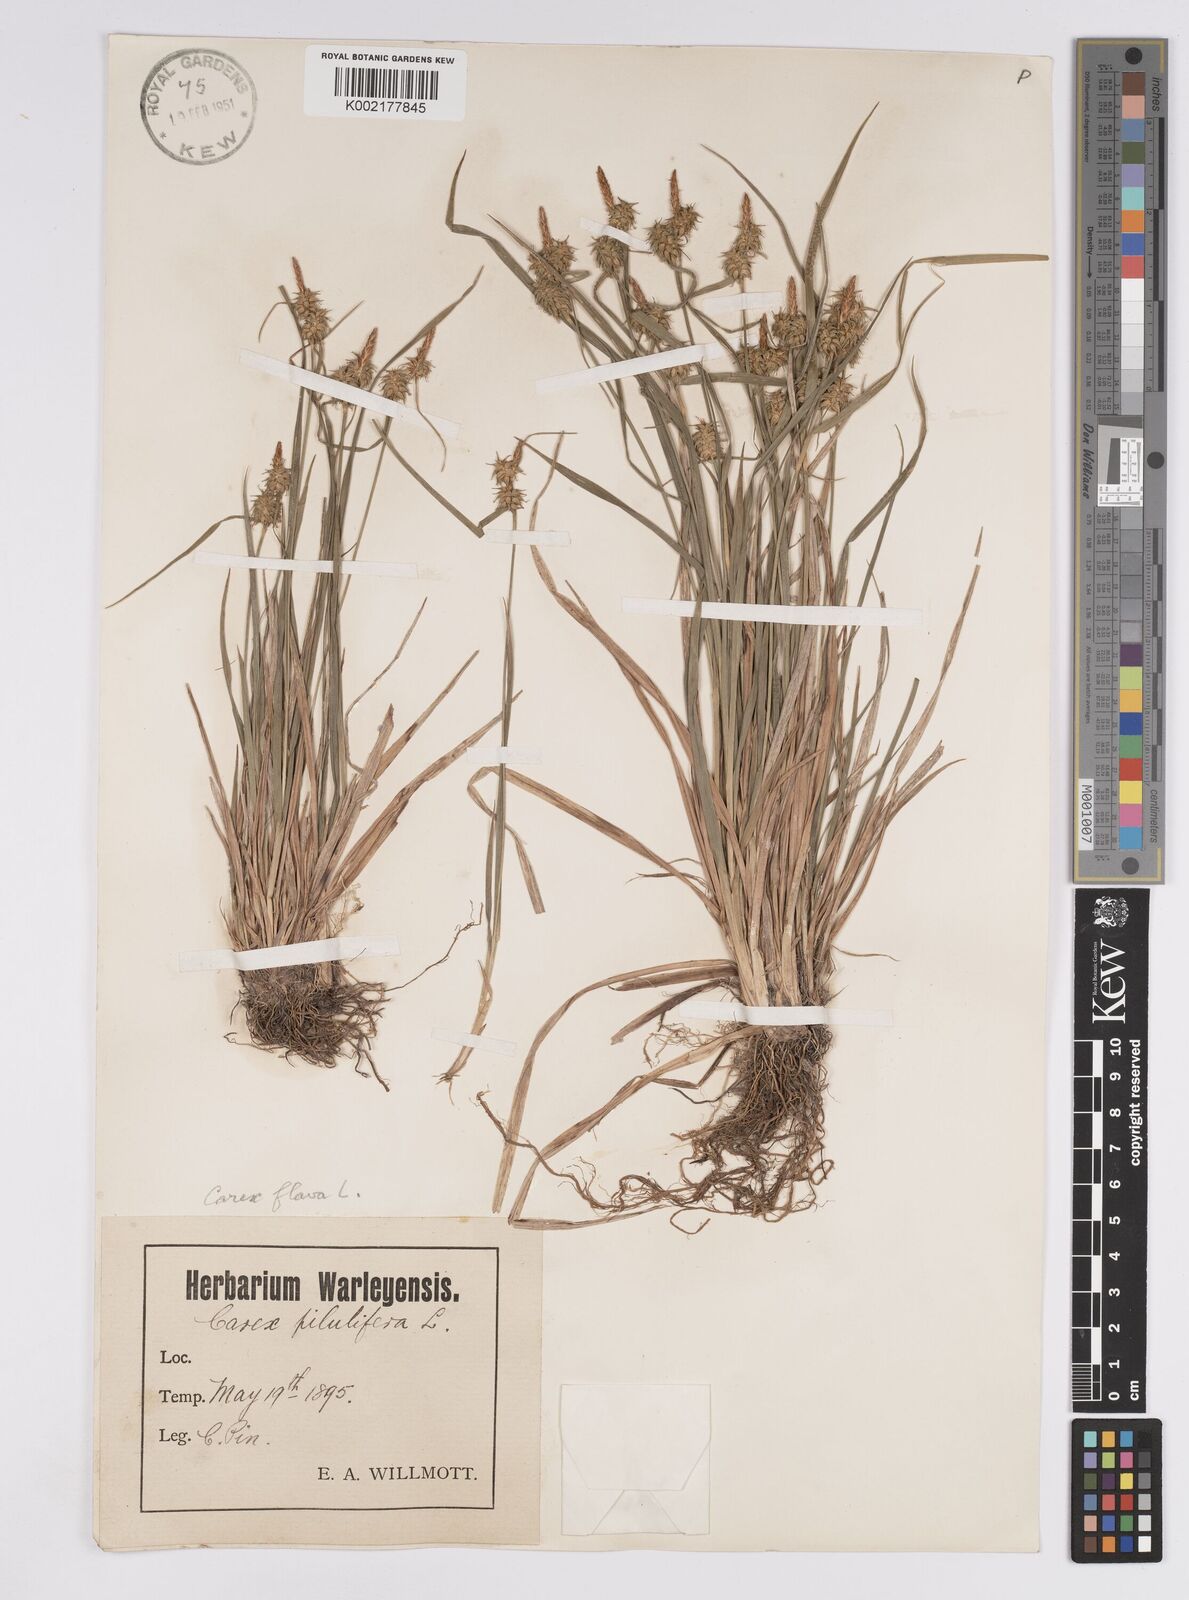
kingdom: Plantae
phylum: Tracheophyta
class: Liliopsida
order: Poales
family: Cyperaceae
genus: Carex
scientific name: Carex flava
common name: Large yellow-sedge
